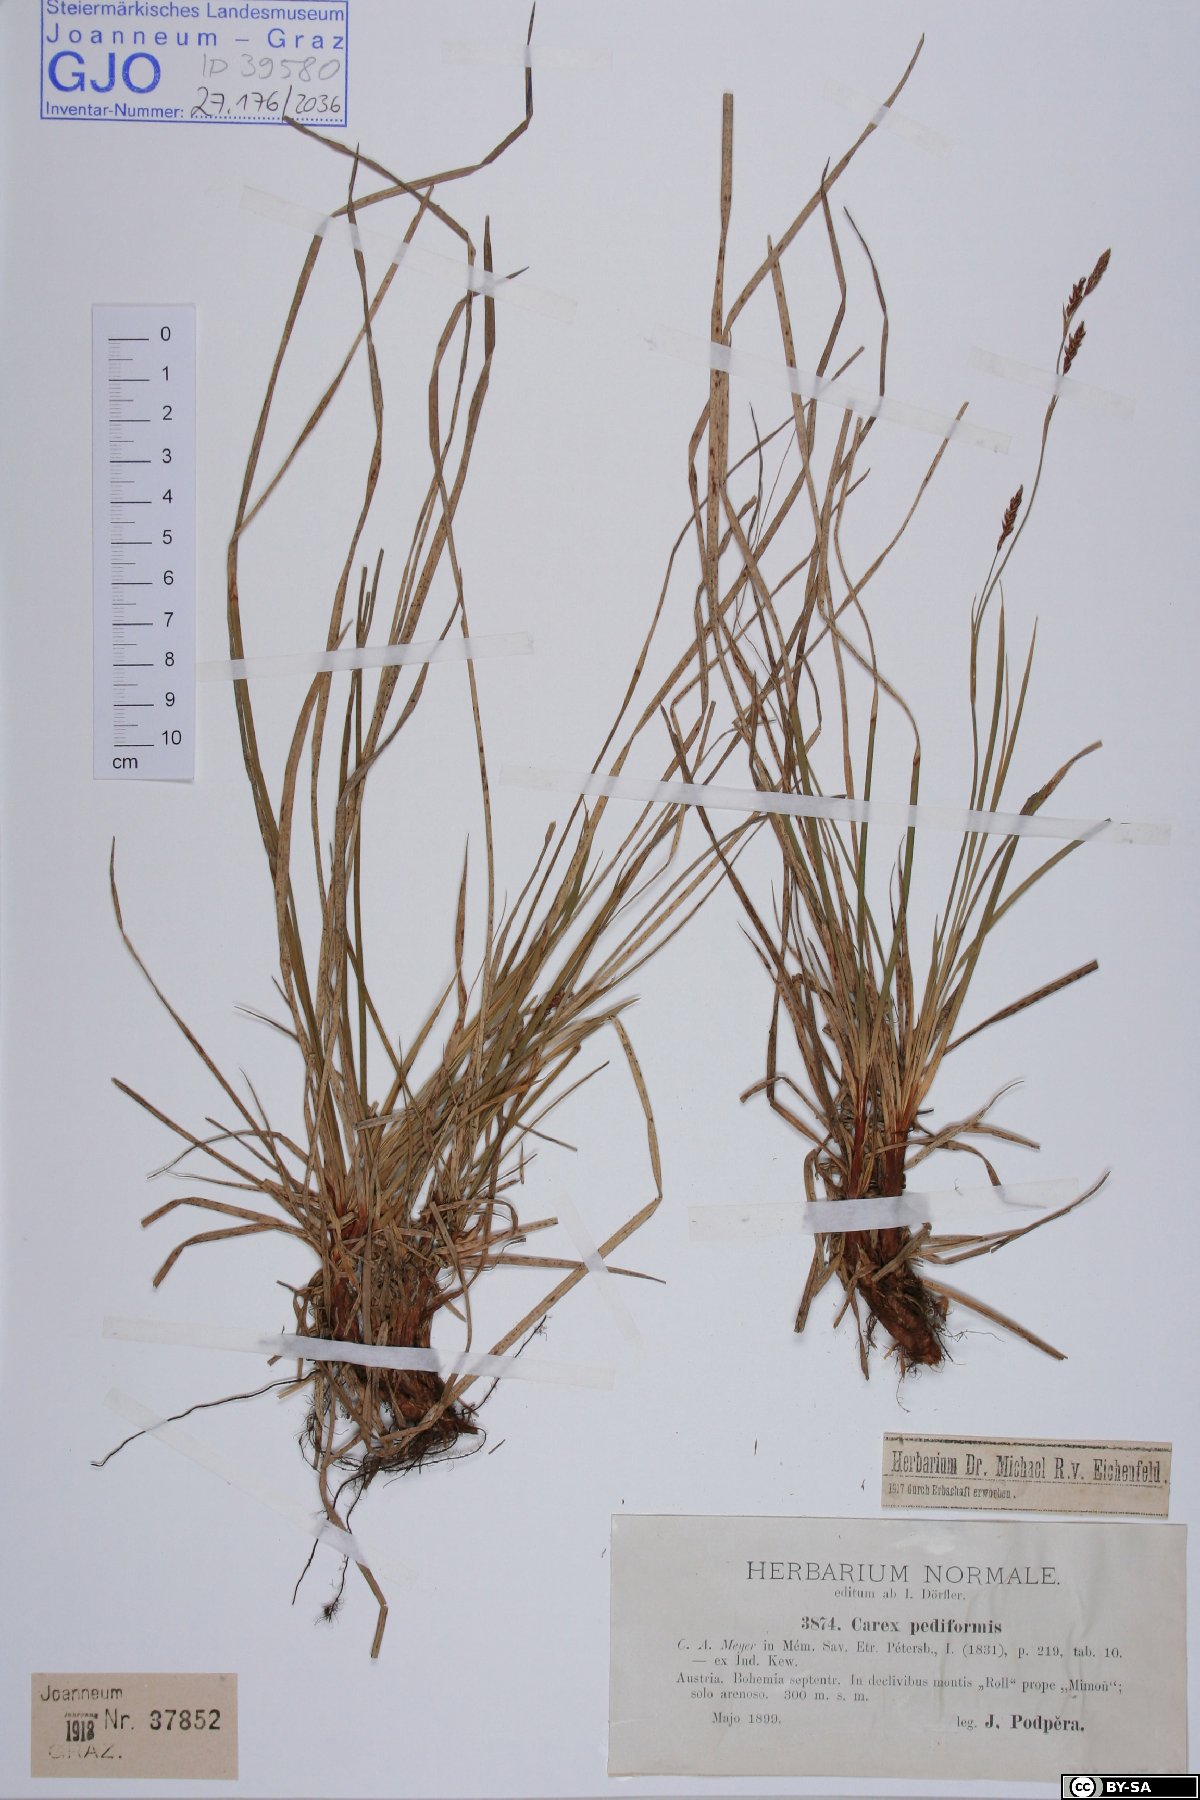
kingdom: Plantae
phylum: Tracheophyta
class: Liliopsida
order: Poales
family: Cyperaceae
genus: Carex
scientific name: Carex pediformis
